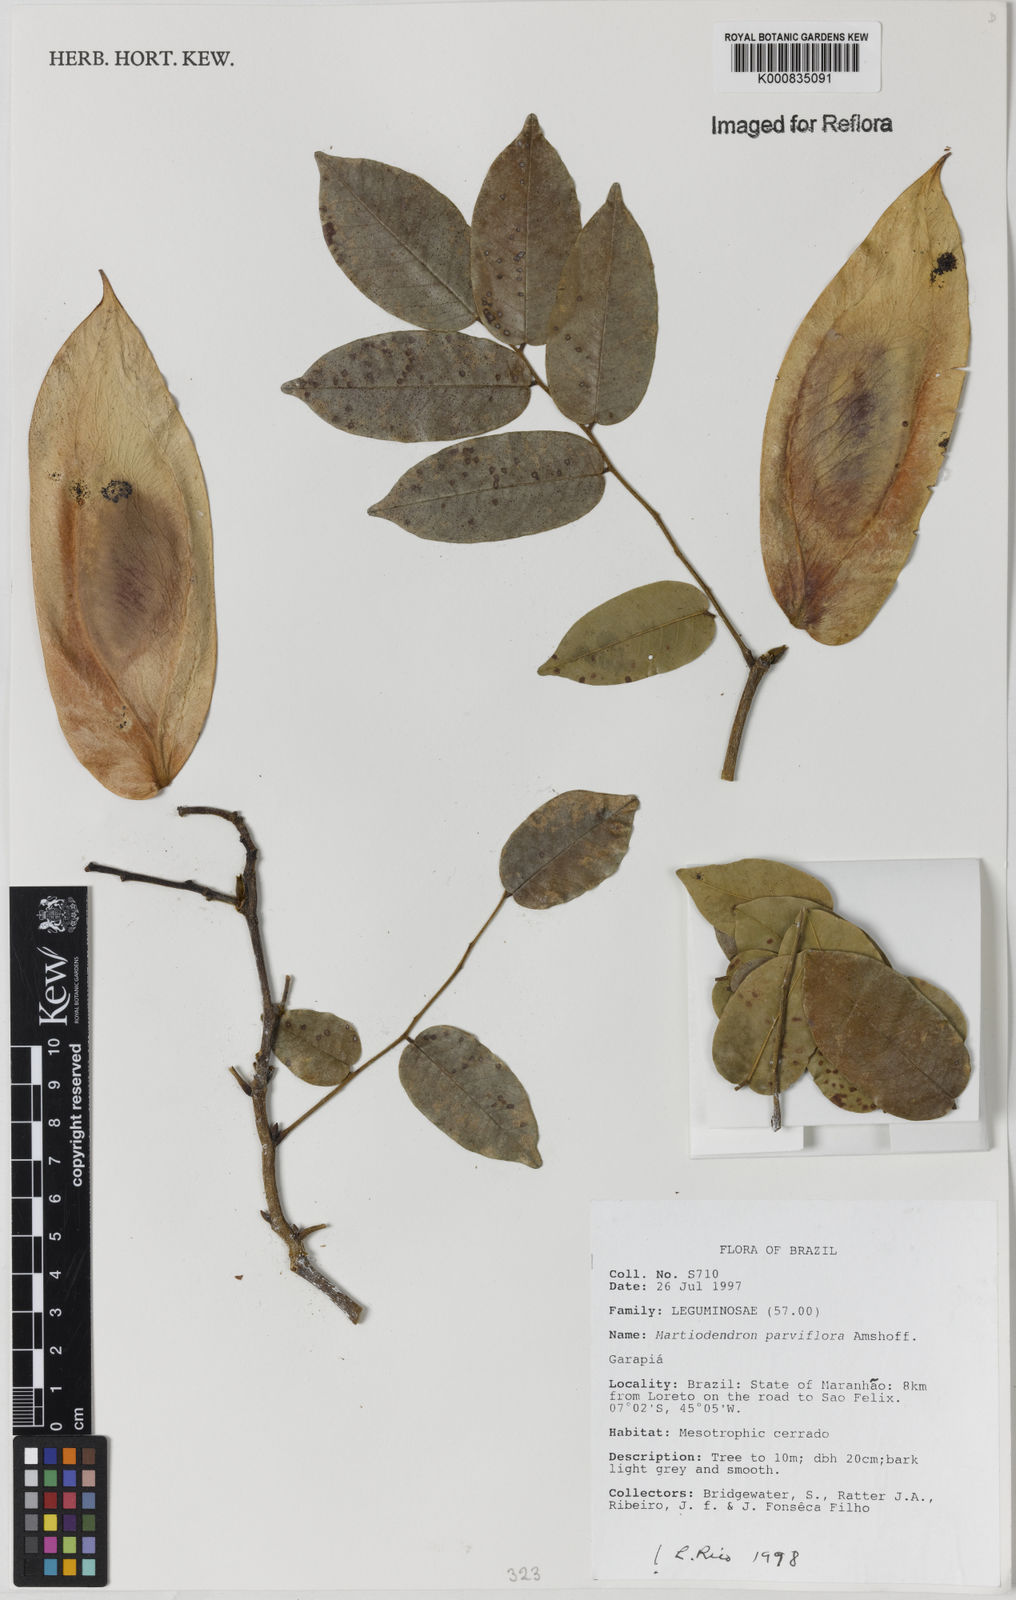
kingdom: Plantae
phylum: Tracheophyta
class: Magnoliopsida
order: Fabales
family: Fabaceae
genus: Martiodendron
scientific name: Martiodendron
